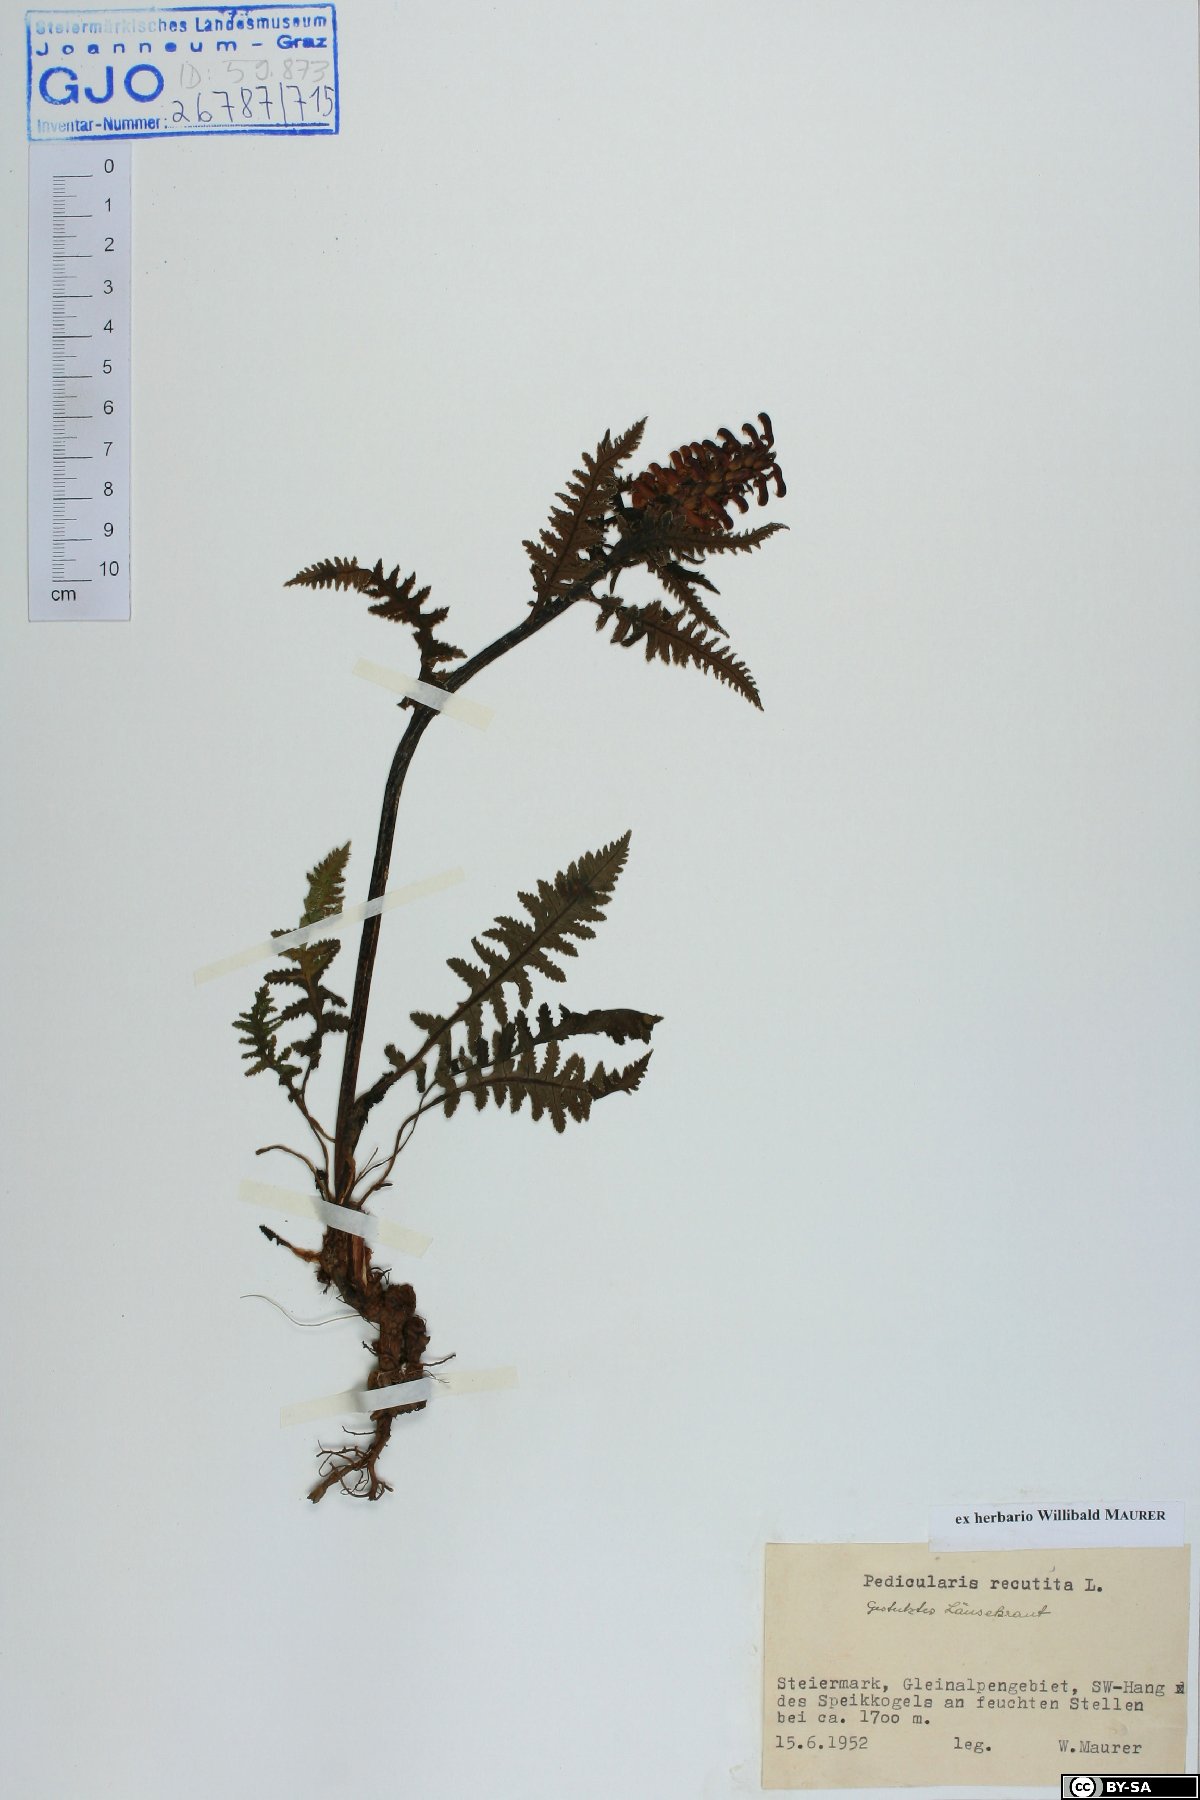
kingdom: Plantae
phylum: Tracheophyta
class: Magnoliopsida
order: Lamiales
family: Orobanchaceae
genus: Pedicularis
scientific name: Pedicularis recutita
